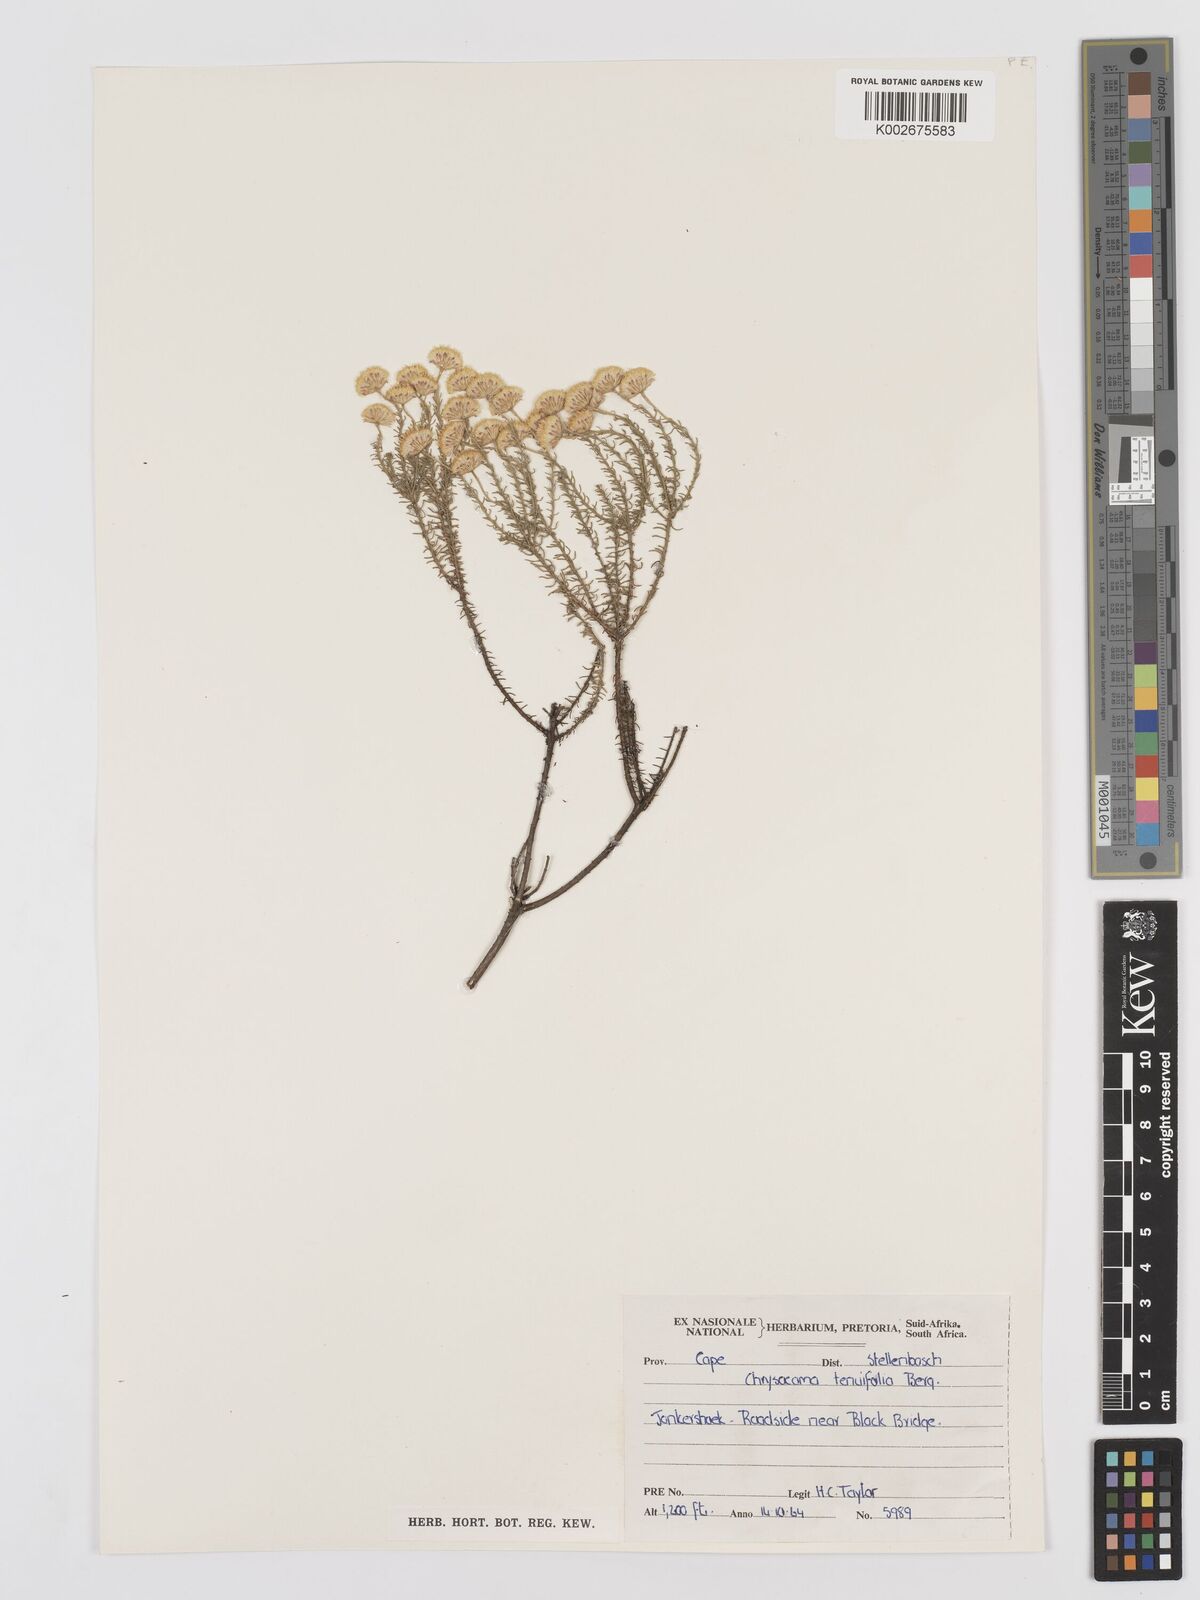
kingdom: Plantae
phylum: Tracheophyta
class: Magnoliopsida
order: Asterales
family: Asteraceae
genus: Chrysocoma
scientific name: Chrysocoma ciliata
